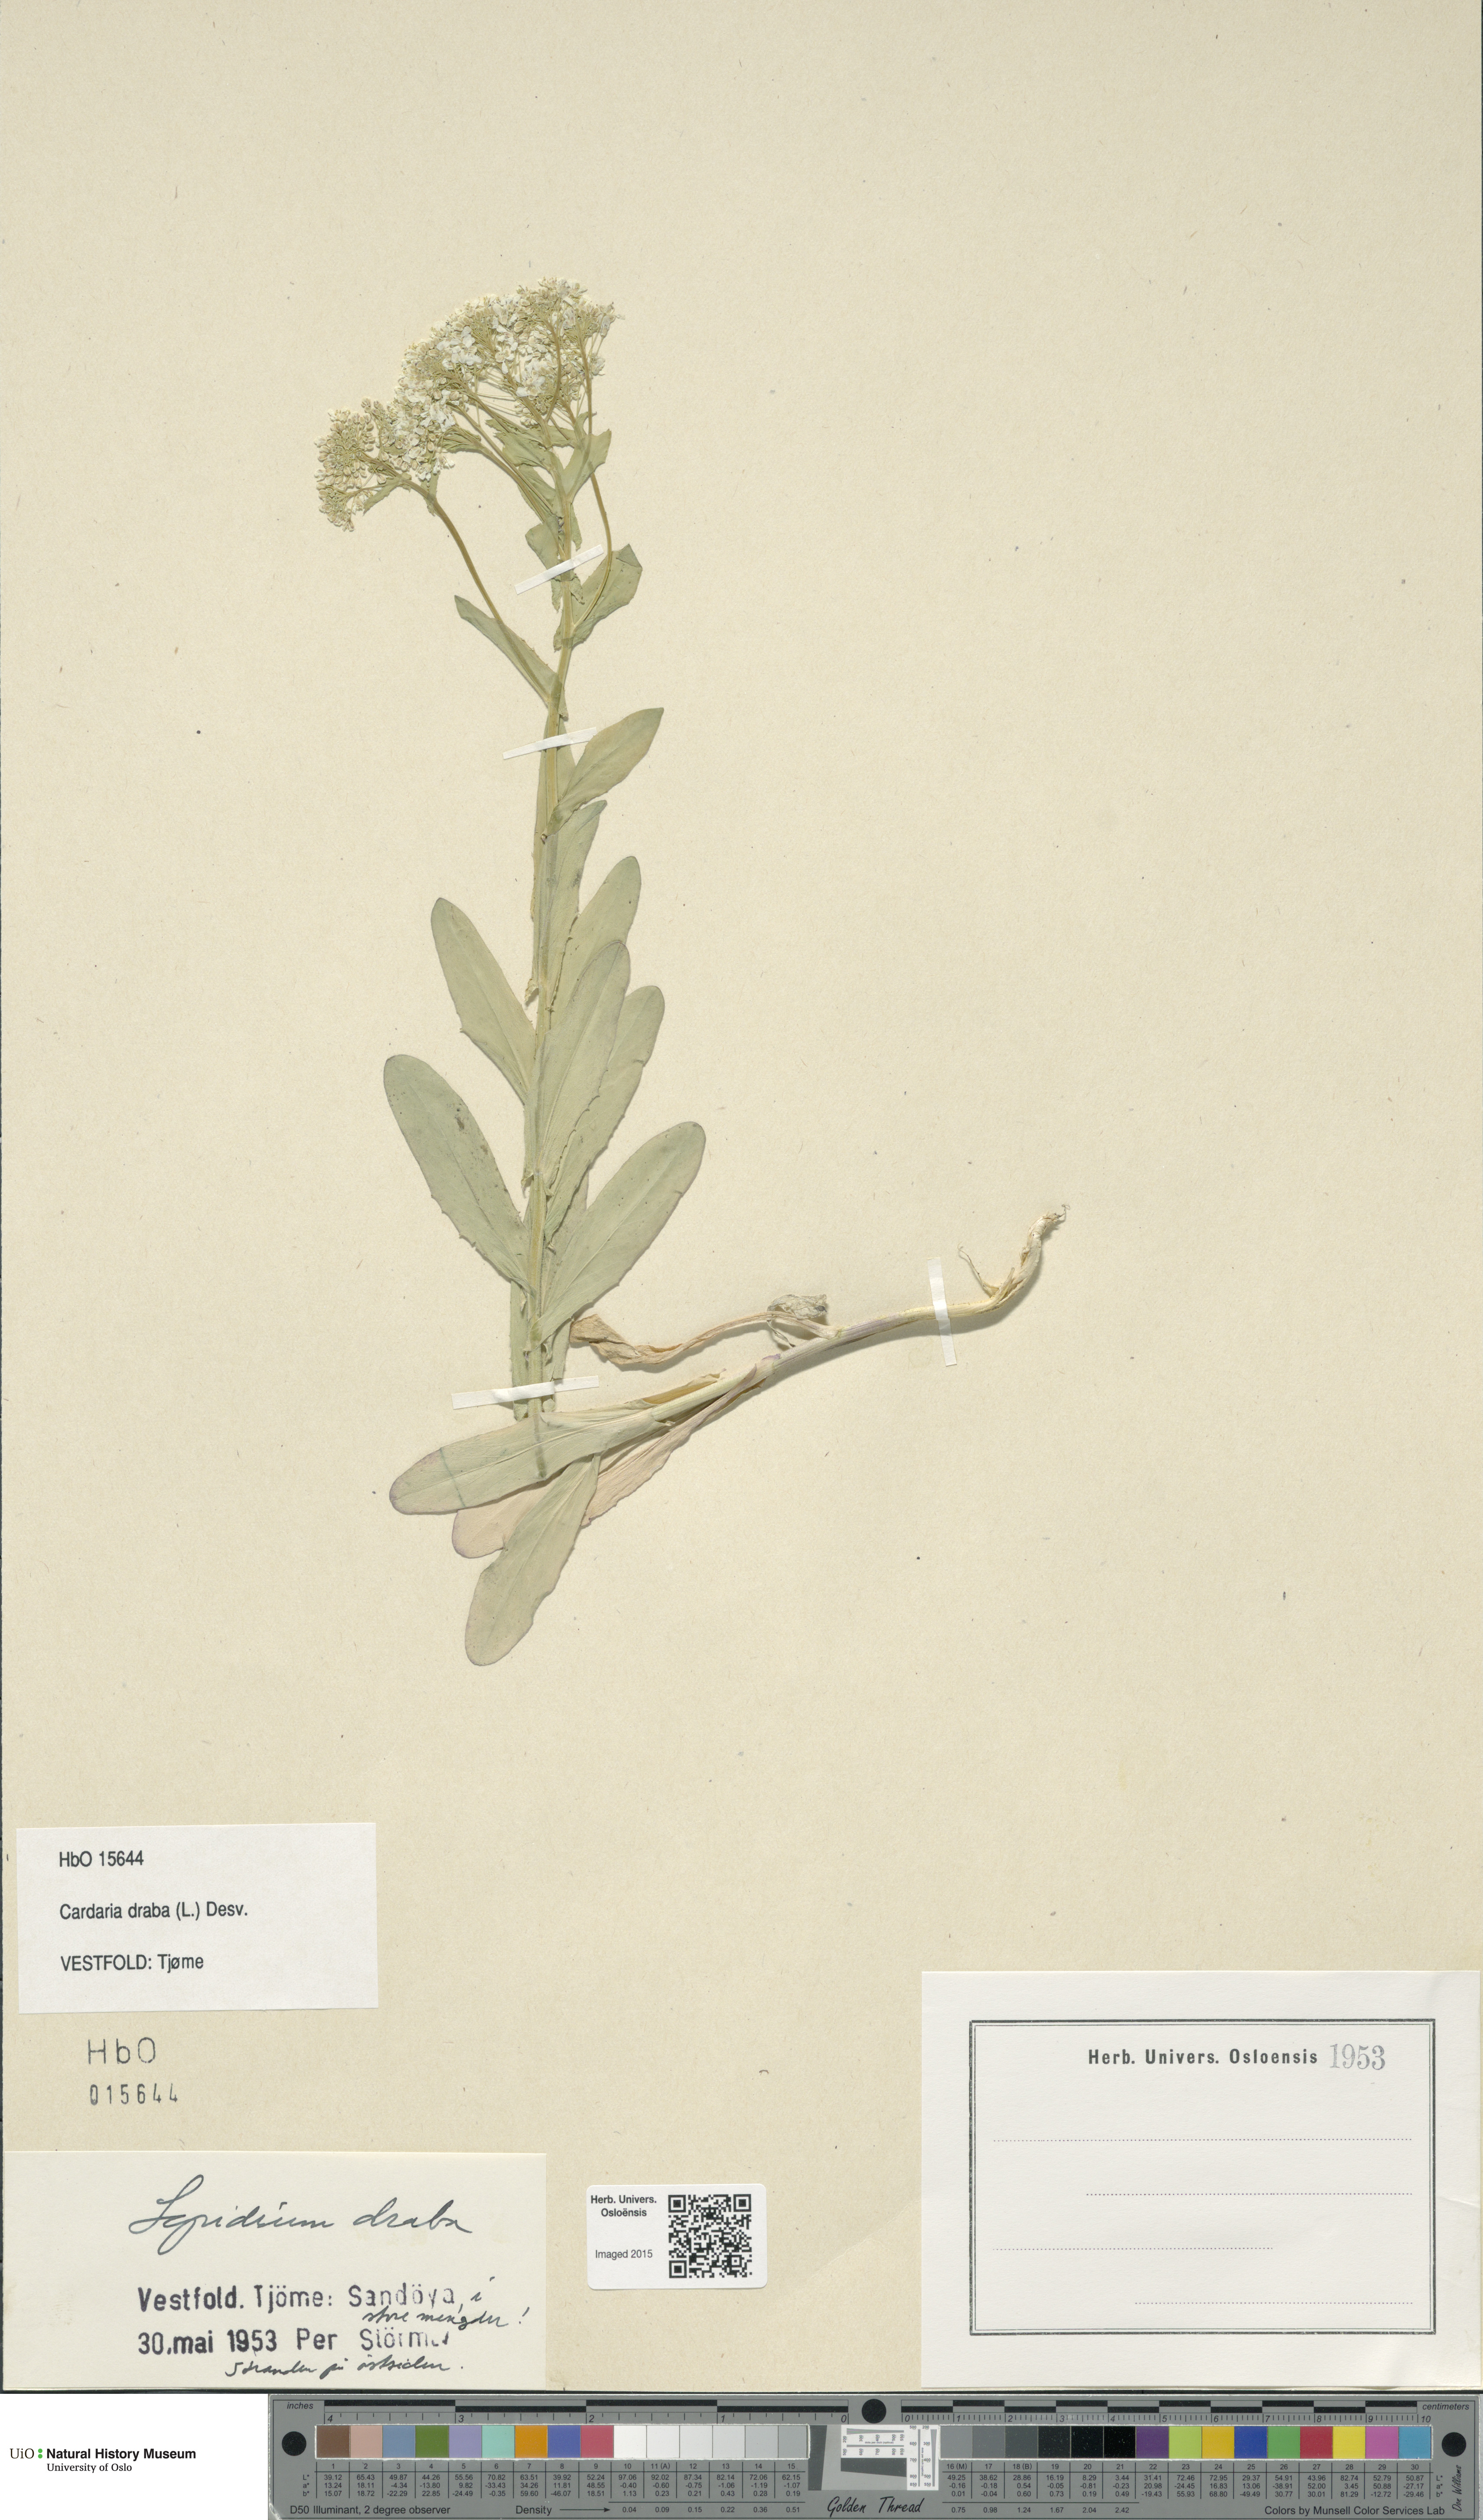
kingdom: Plantae
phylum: Tracheophyta
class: Magnoliopsida
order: Brassicales
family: Brassicaceae
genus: Lepidium
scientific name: Lepidium draba
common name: Hoary cress
